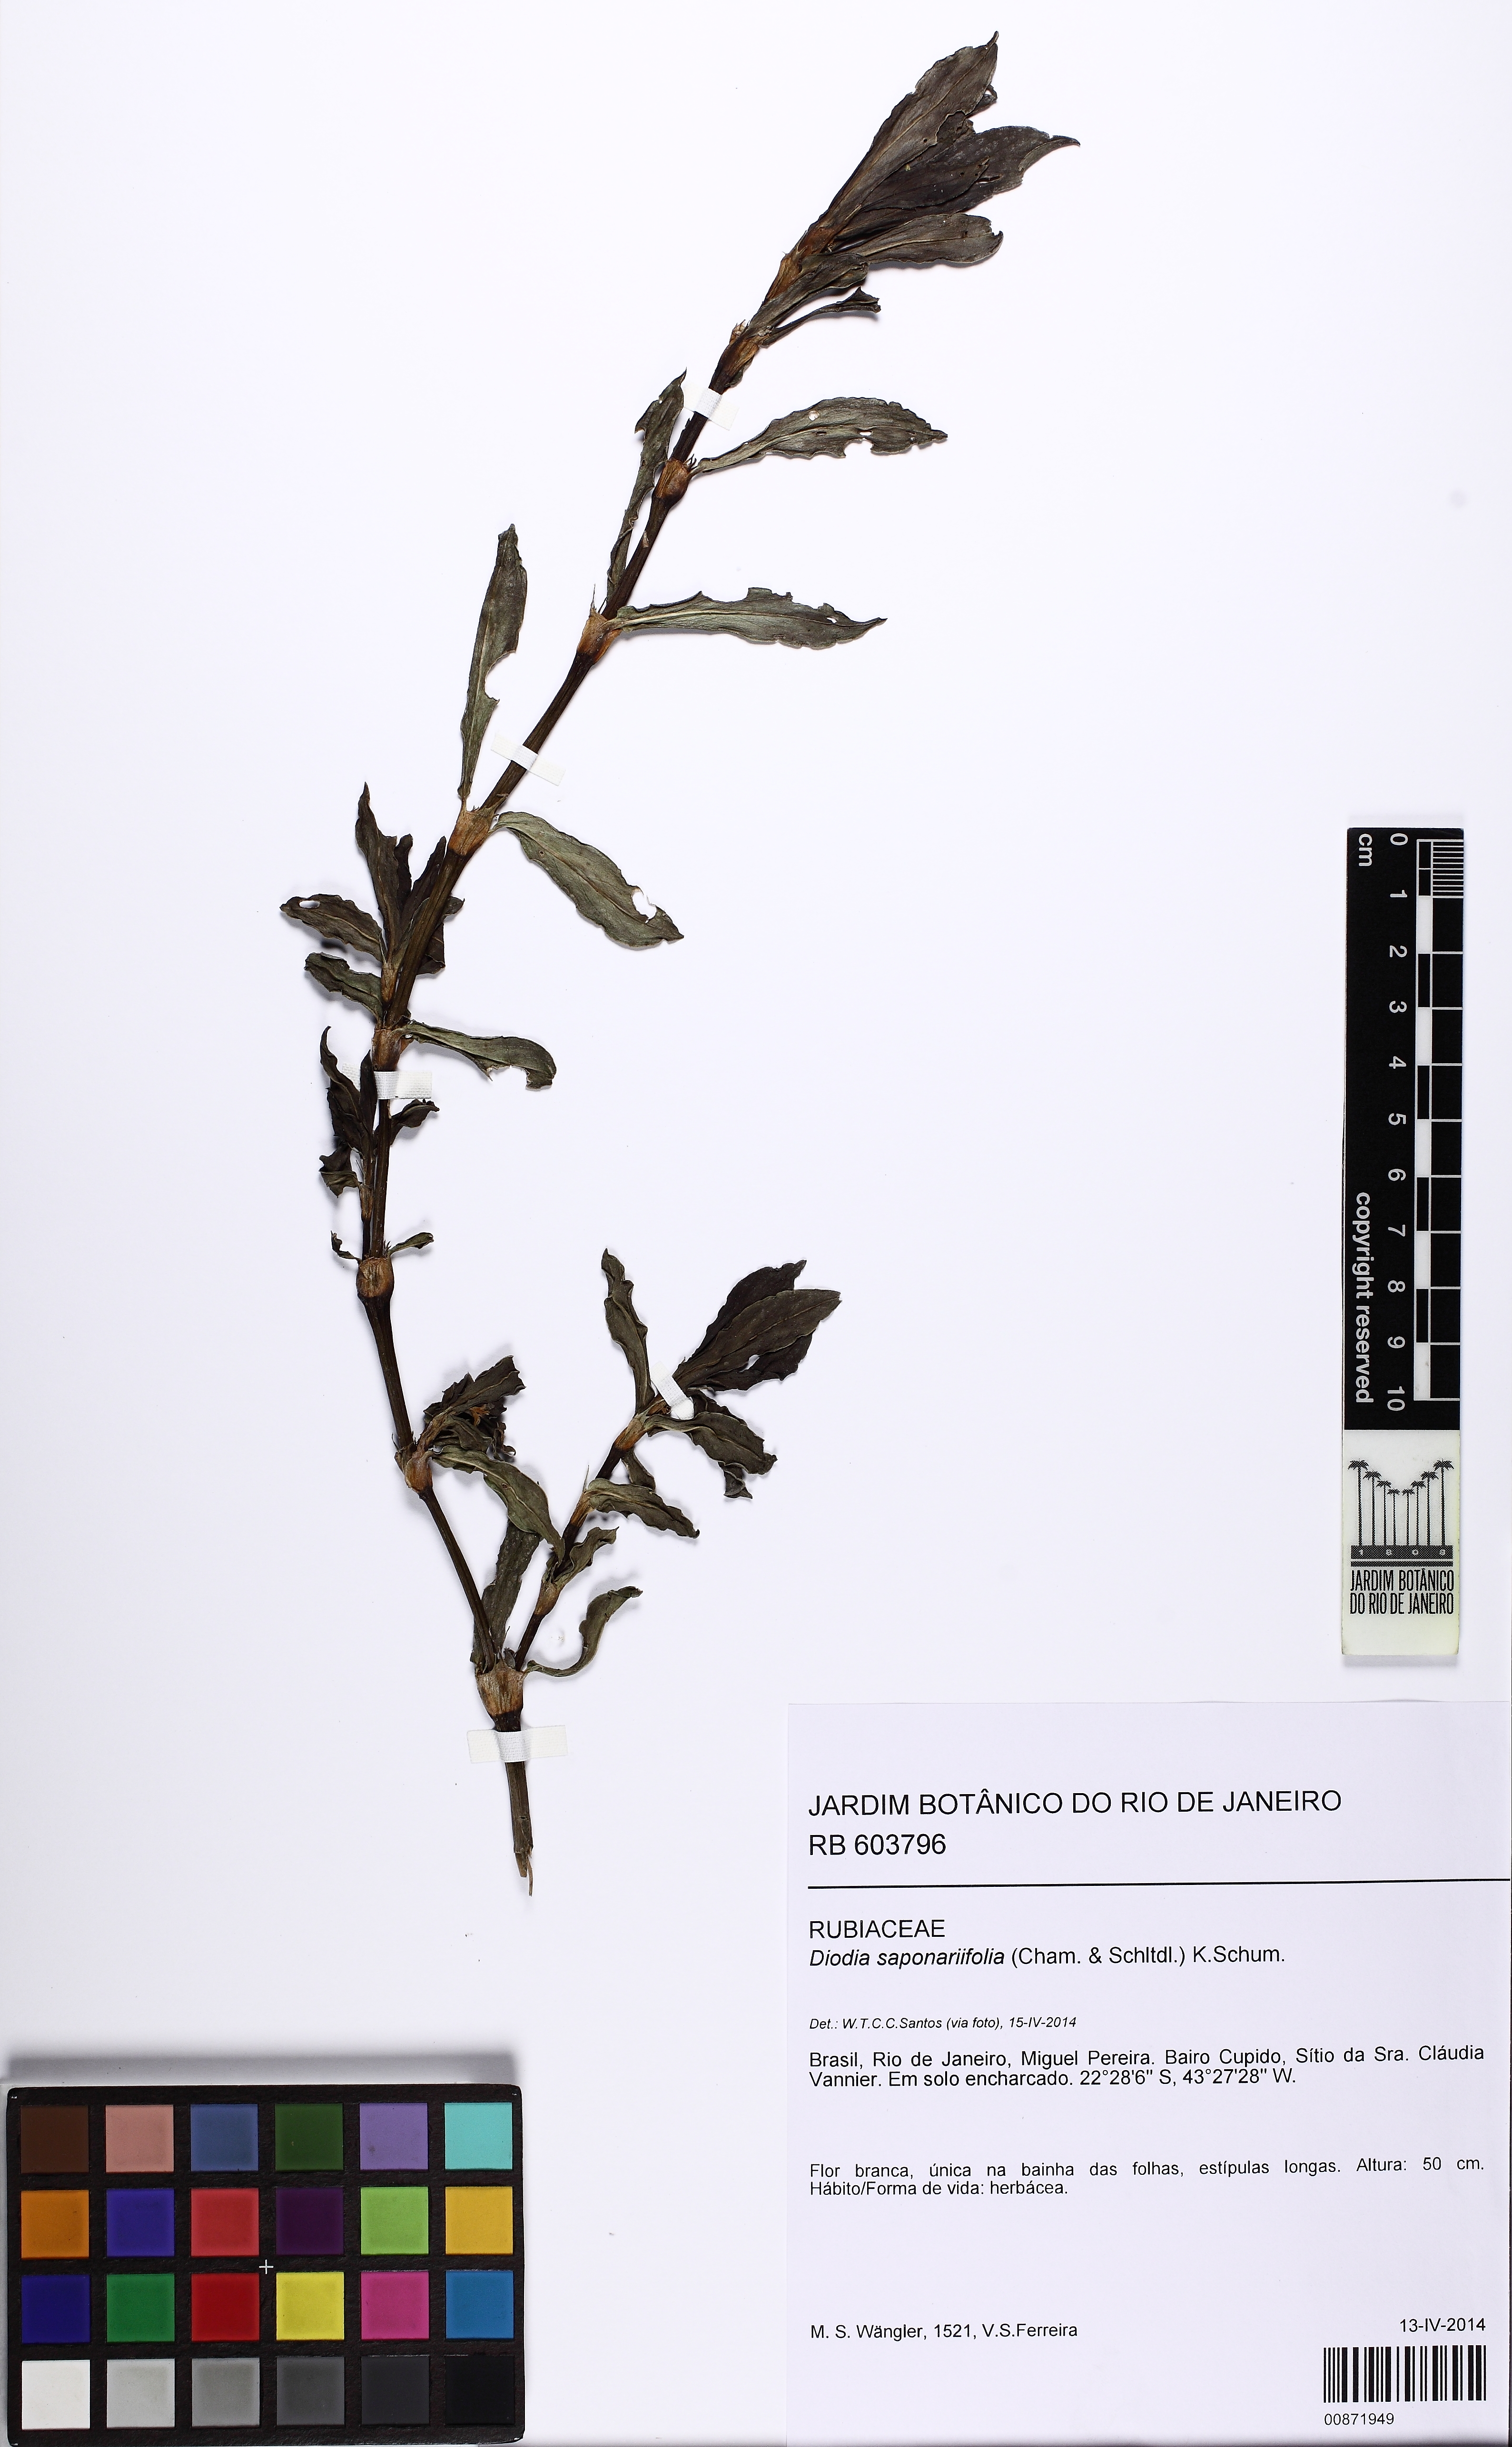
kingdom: Plantae
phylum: Tracheophyta
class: Magnoliopsida
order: Gentianales
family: Rubiaceae
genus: Diodia
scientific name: Diodia saponariifolia
